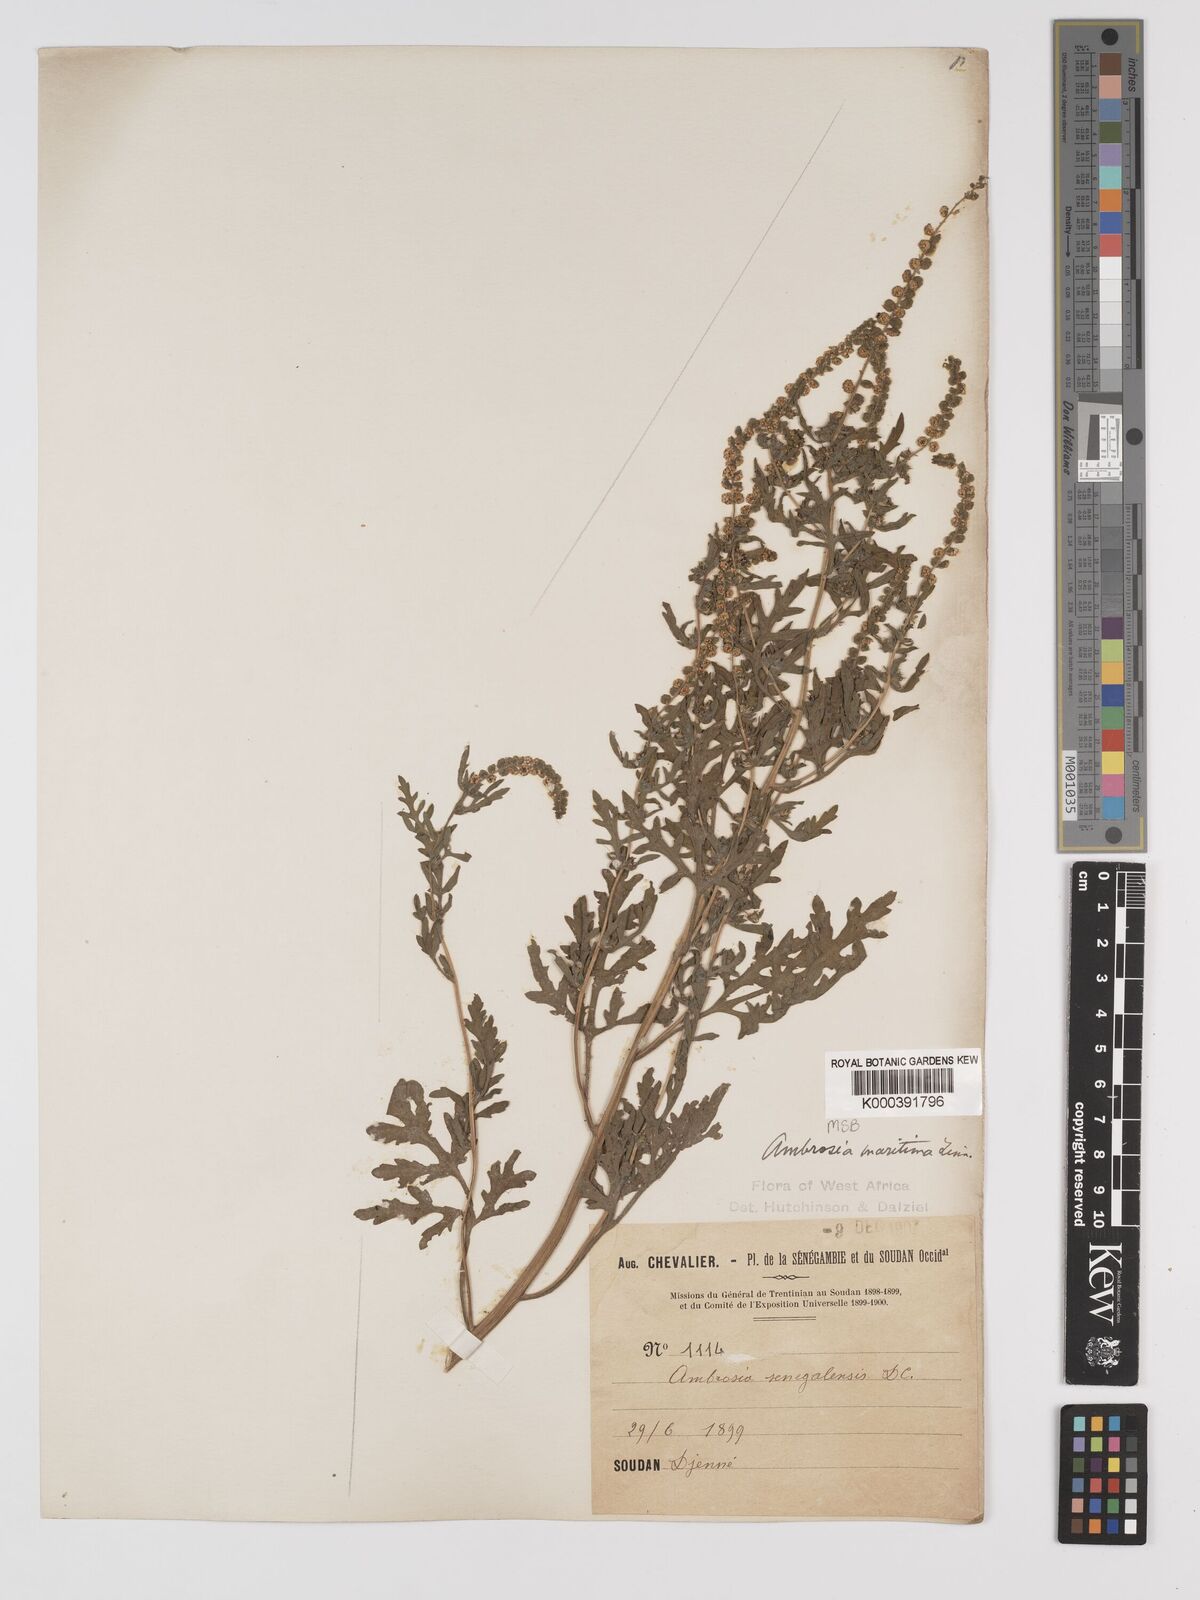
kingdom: Plantae
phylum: Tracheophyta
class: Magnoliopsida
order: Asterales
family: Asteraceae
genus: Ambrosia
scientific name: Ambrosia maritima
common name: Sea ambrosia
